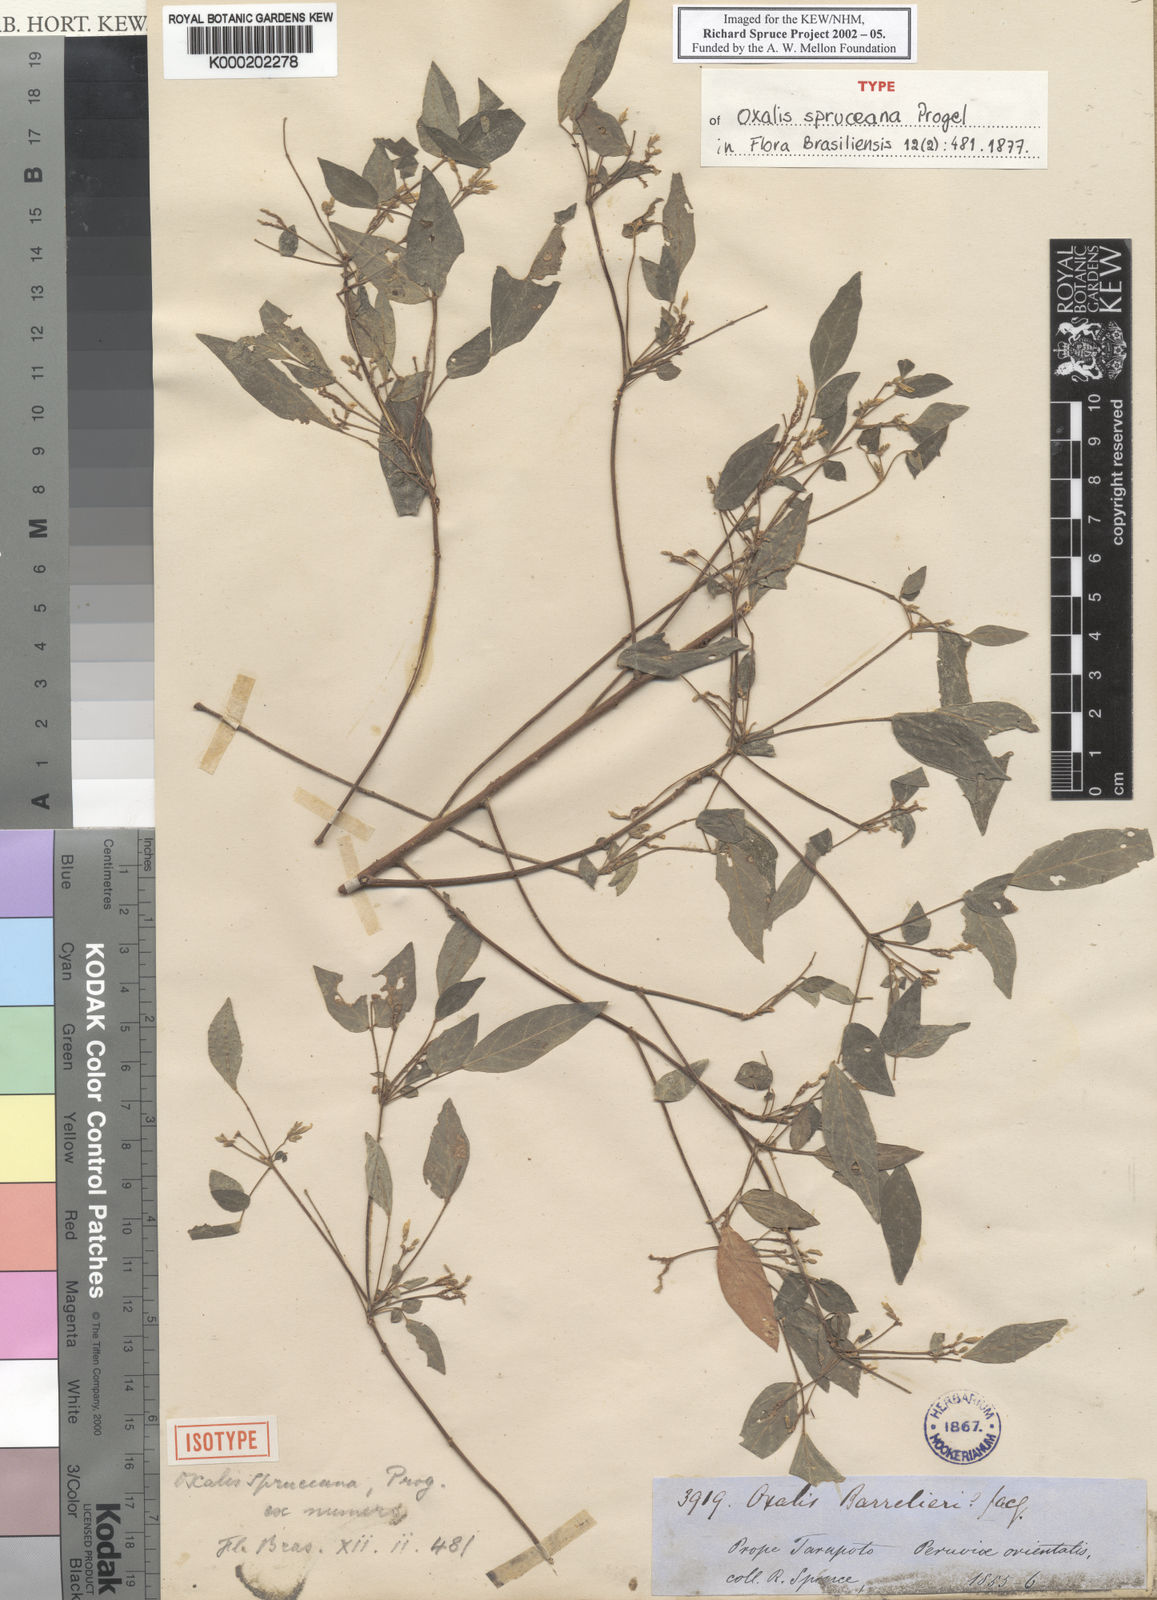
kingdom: Plantae
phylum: Tracheophyta
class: Magnoliopsida
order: Oxalidales
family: Oxalidaceae
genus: Oxalis
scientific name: Oxalis spruceana
